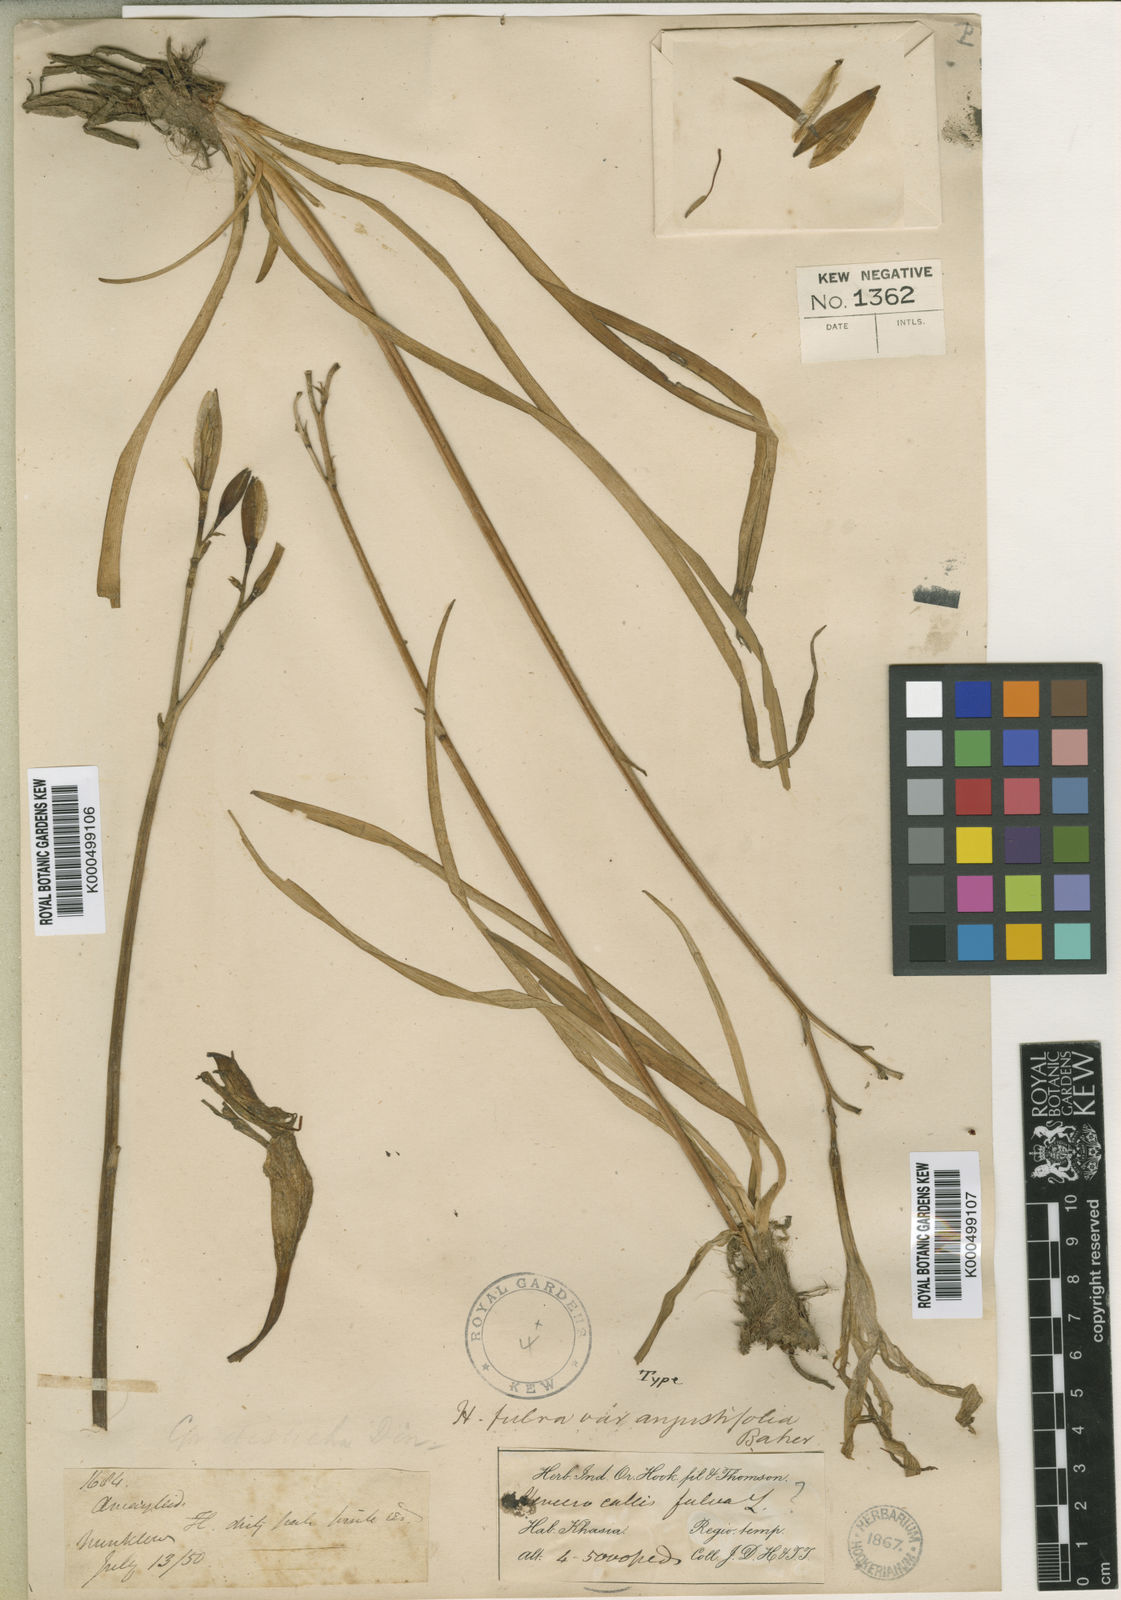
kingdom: Plantae
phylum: Tracheophyta
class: Liliopsida
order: Asparagales
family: Asphodelaceae
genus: Hemerocallis
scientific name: Hemerocallis fulva
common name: Orange day-lily
